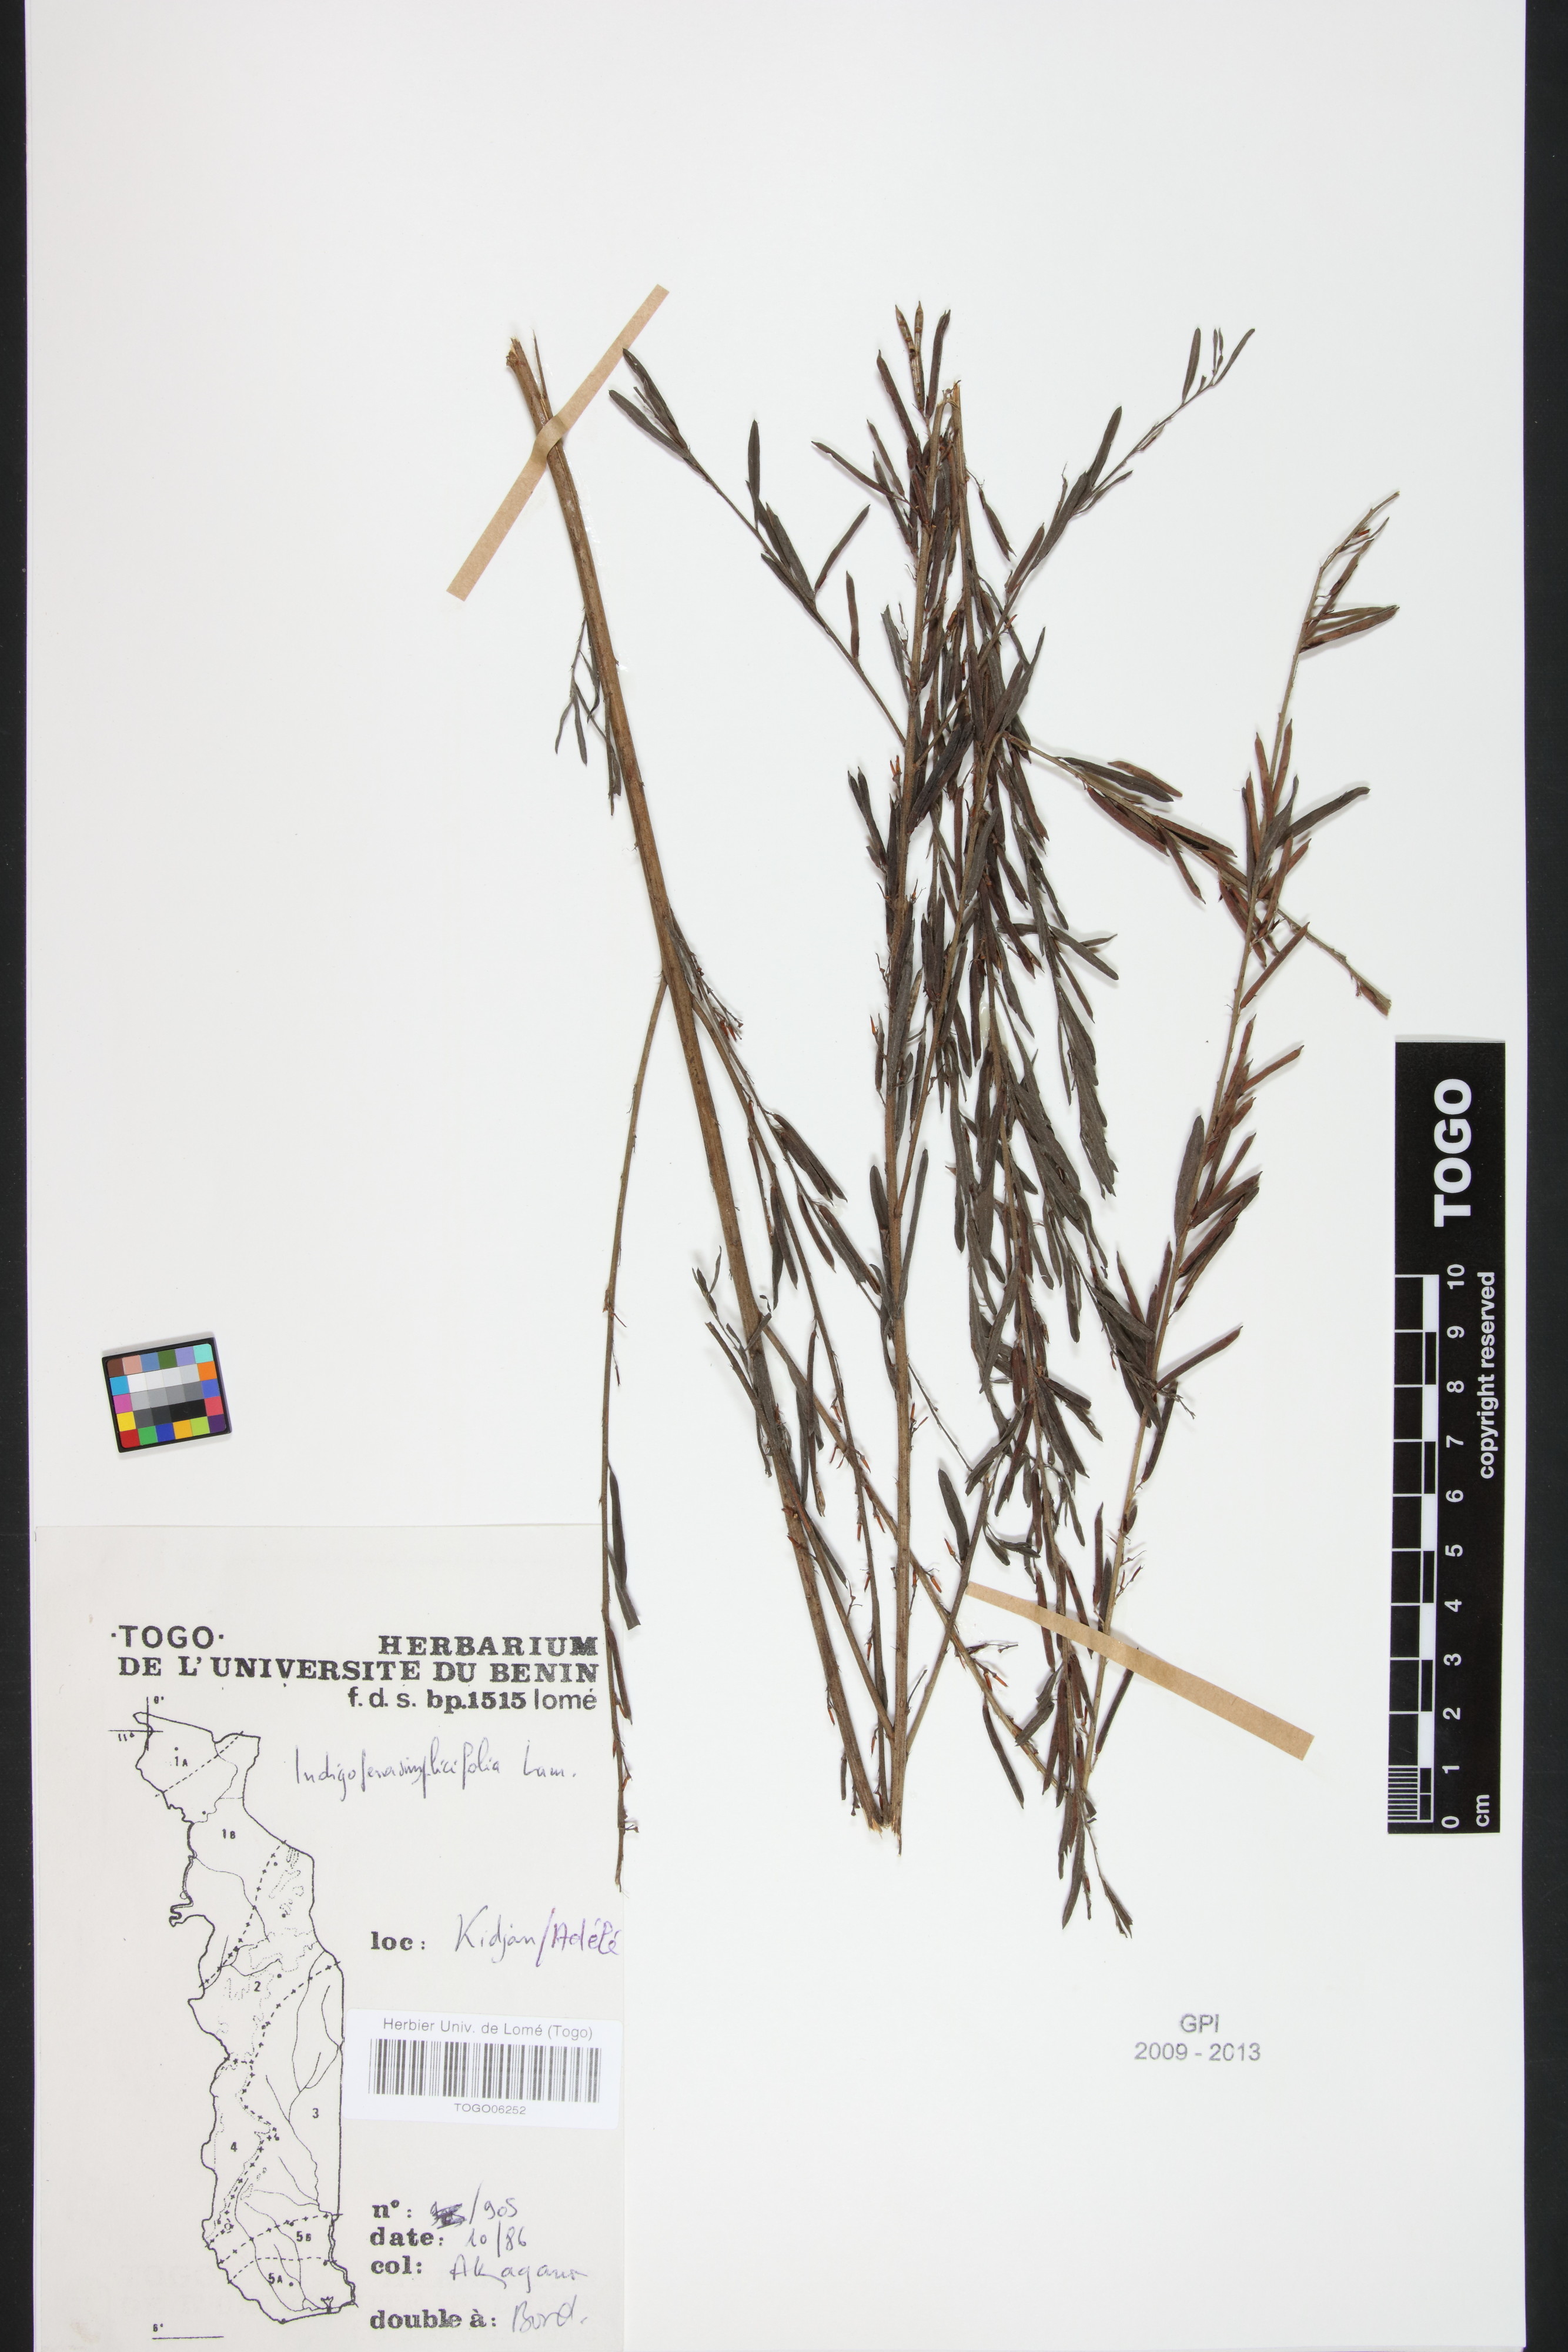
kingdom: Plantae
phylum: Tracheophyta
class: Magnoliopsida
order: Fabales
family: Fabaceae
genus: Indigofera
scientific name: Indigofera leprieurii
